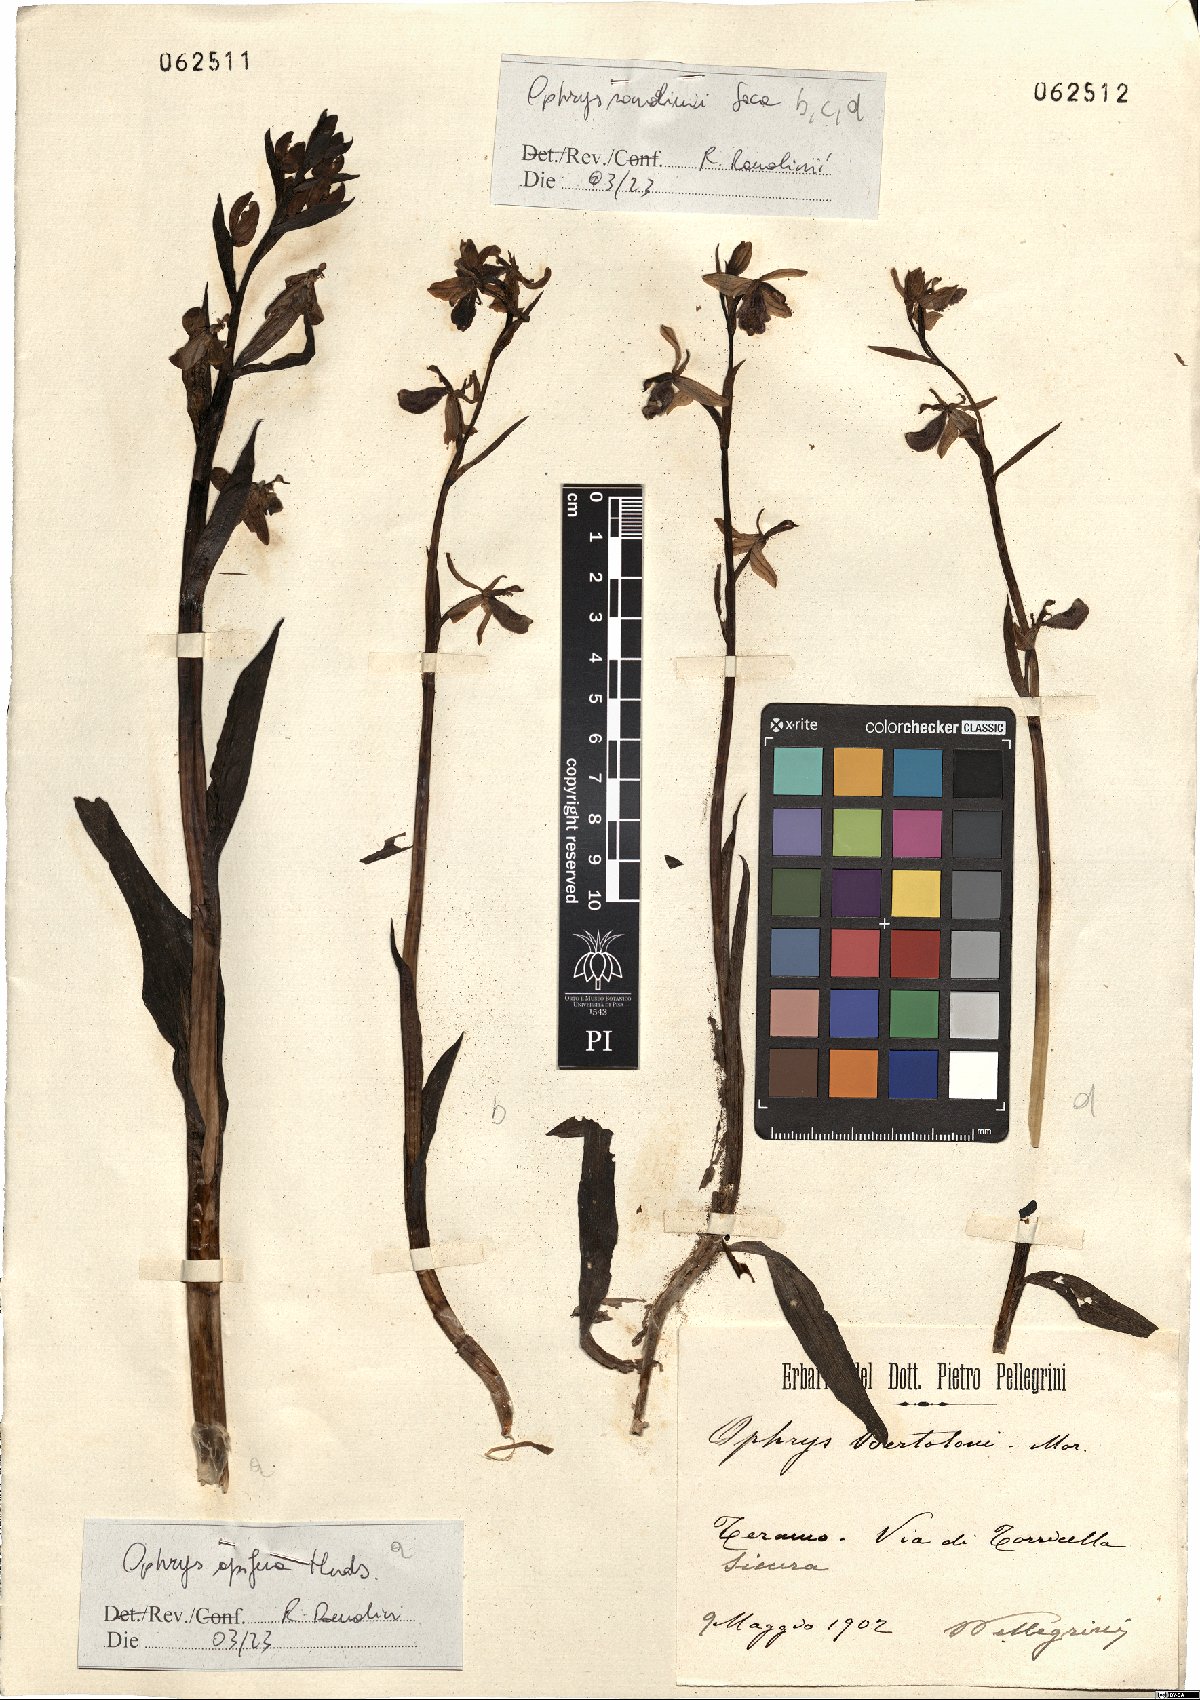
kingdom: Plantae
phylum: Tracheophyta
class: Liliopsida
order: Asparagales
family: Orchidaceae
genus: Ophrys
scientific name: Ophrys apifera
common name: Bee orchid
